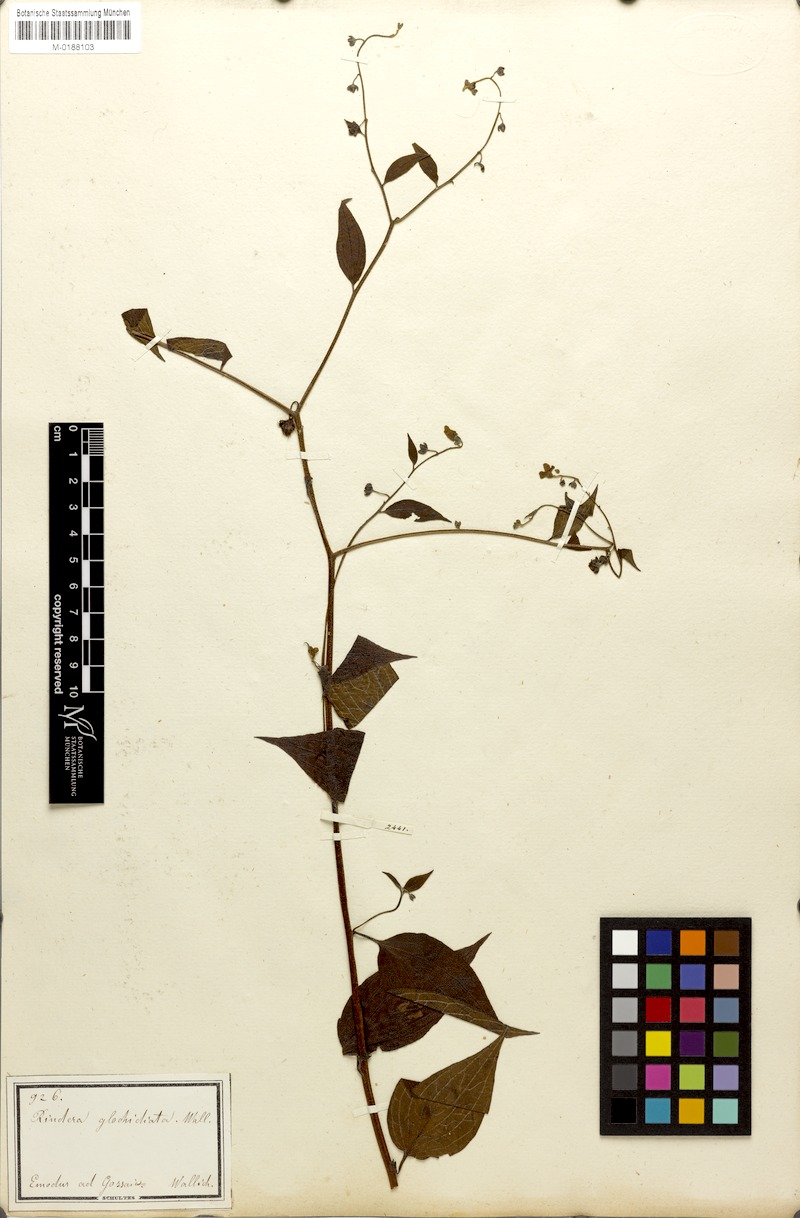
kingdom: Plantae
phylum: Tracheophyta
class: Magnoliopsida
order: Boraginales
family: Boraginaceae
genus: Hackelia
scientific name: Hackelia uncinata
